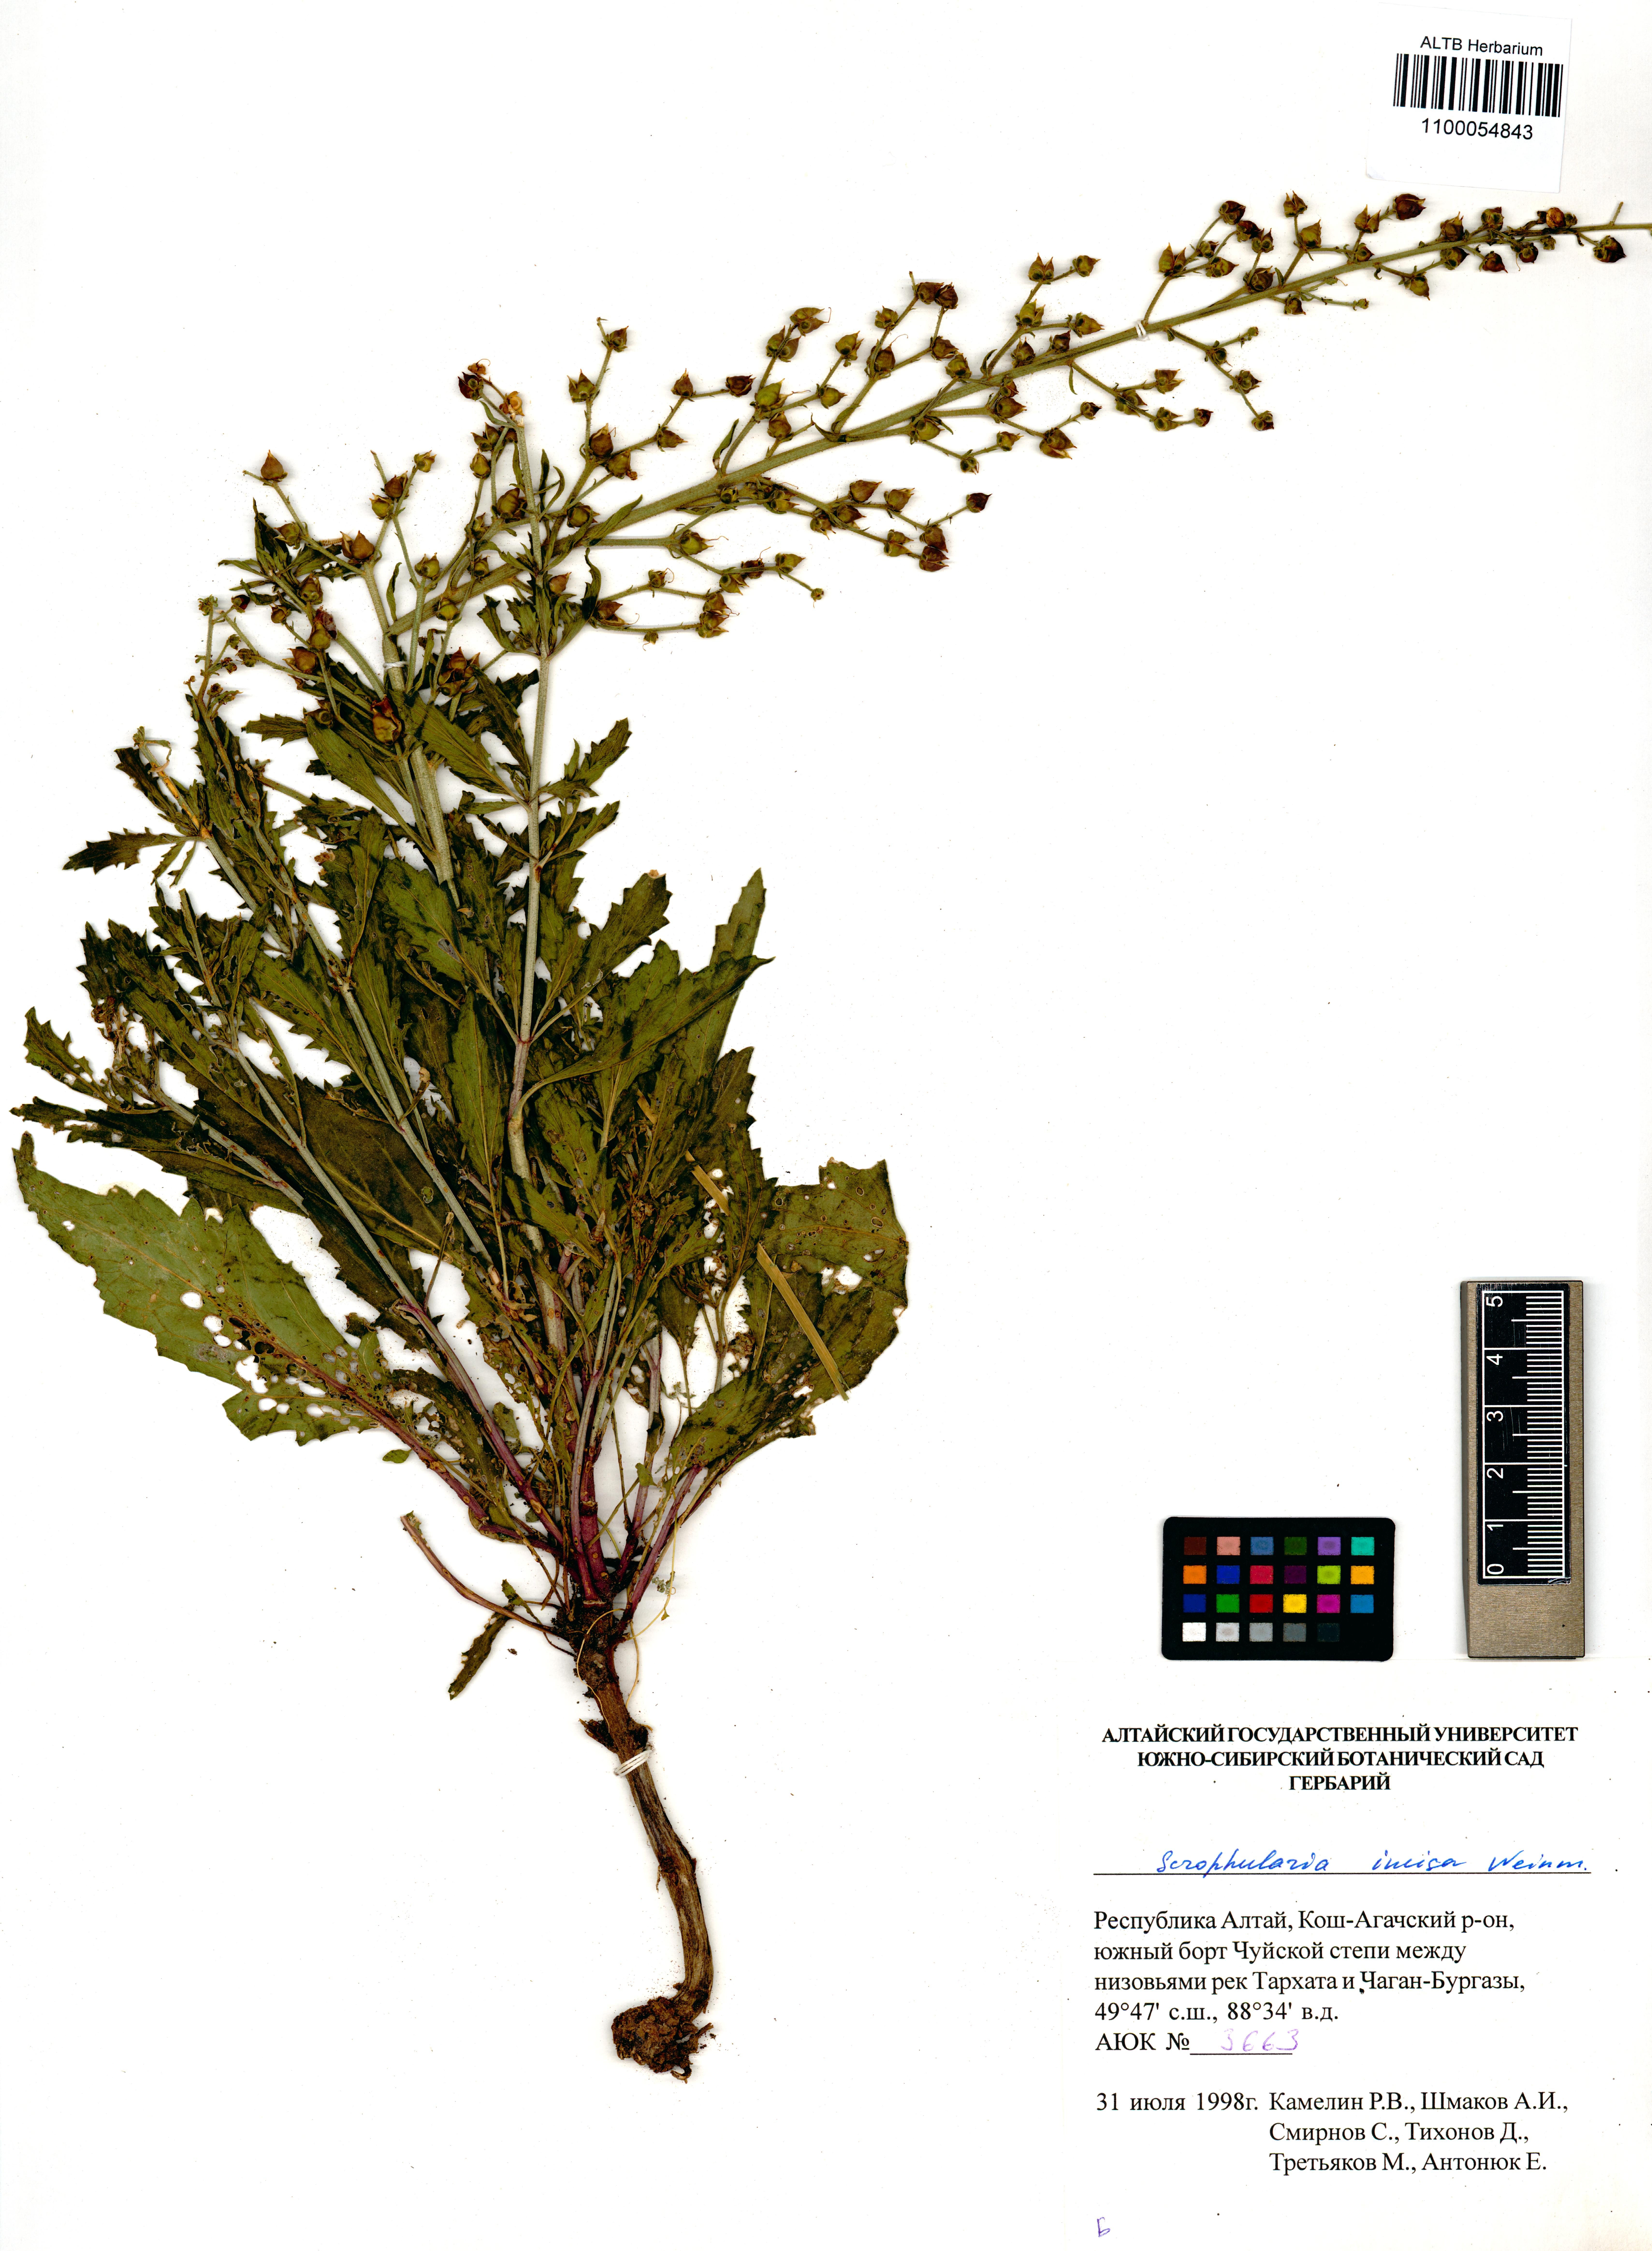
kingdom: Plantae
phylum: Tracheophyta
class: Magnoliopsida
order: Lamiales
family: Scrophulariaceae
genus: Scrophularia
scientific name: Scrophularia incisa
